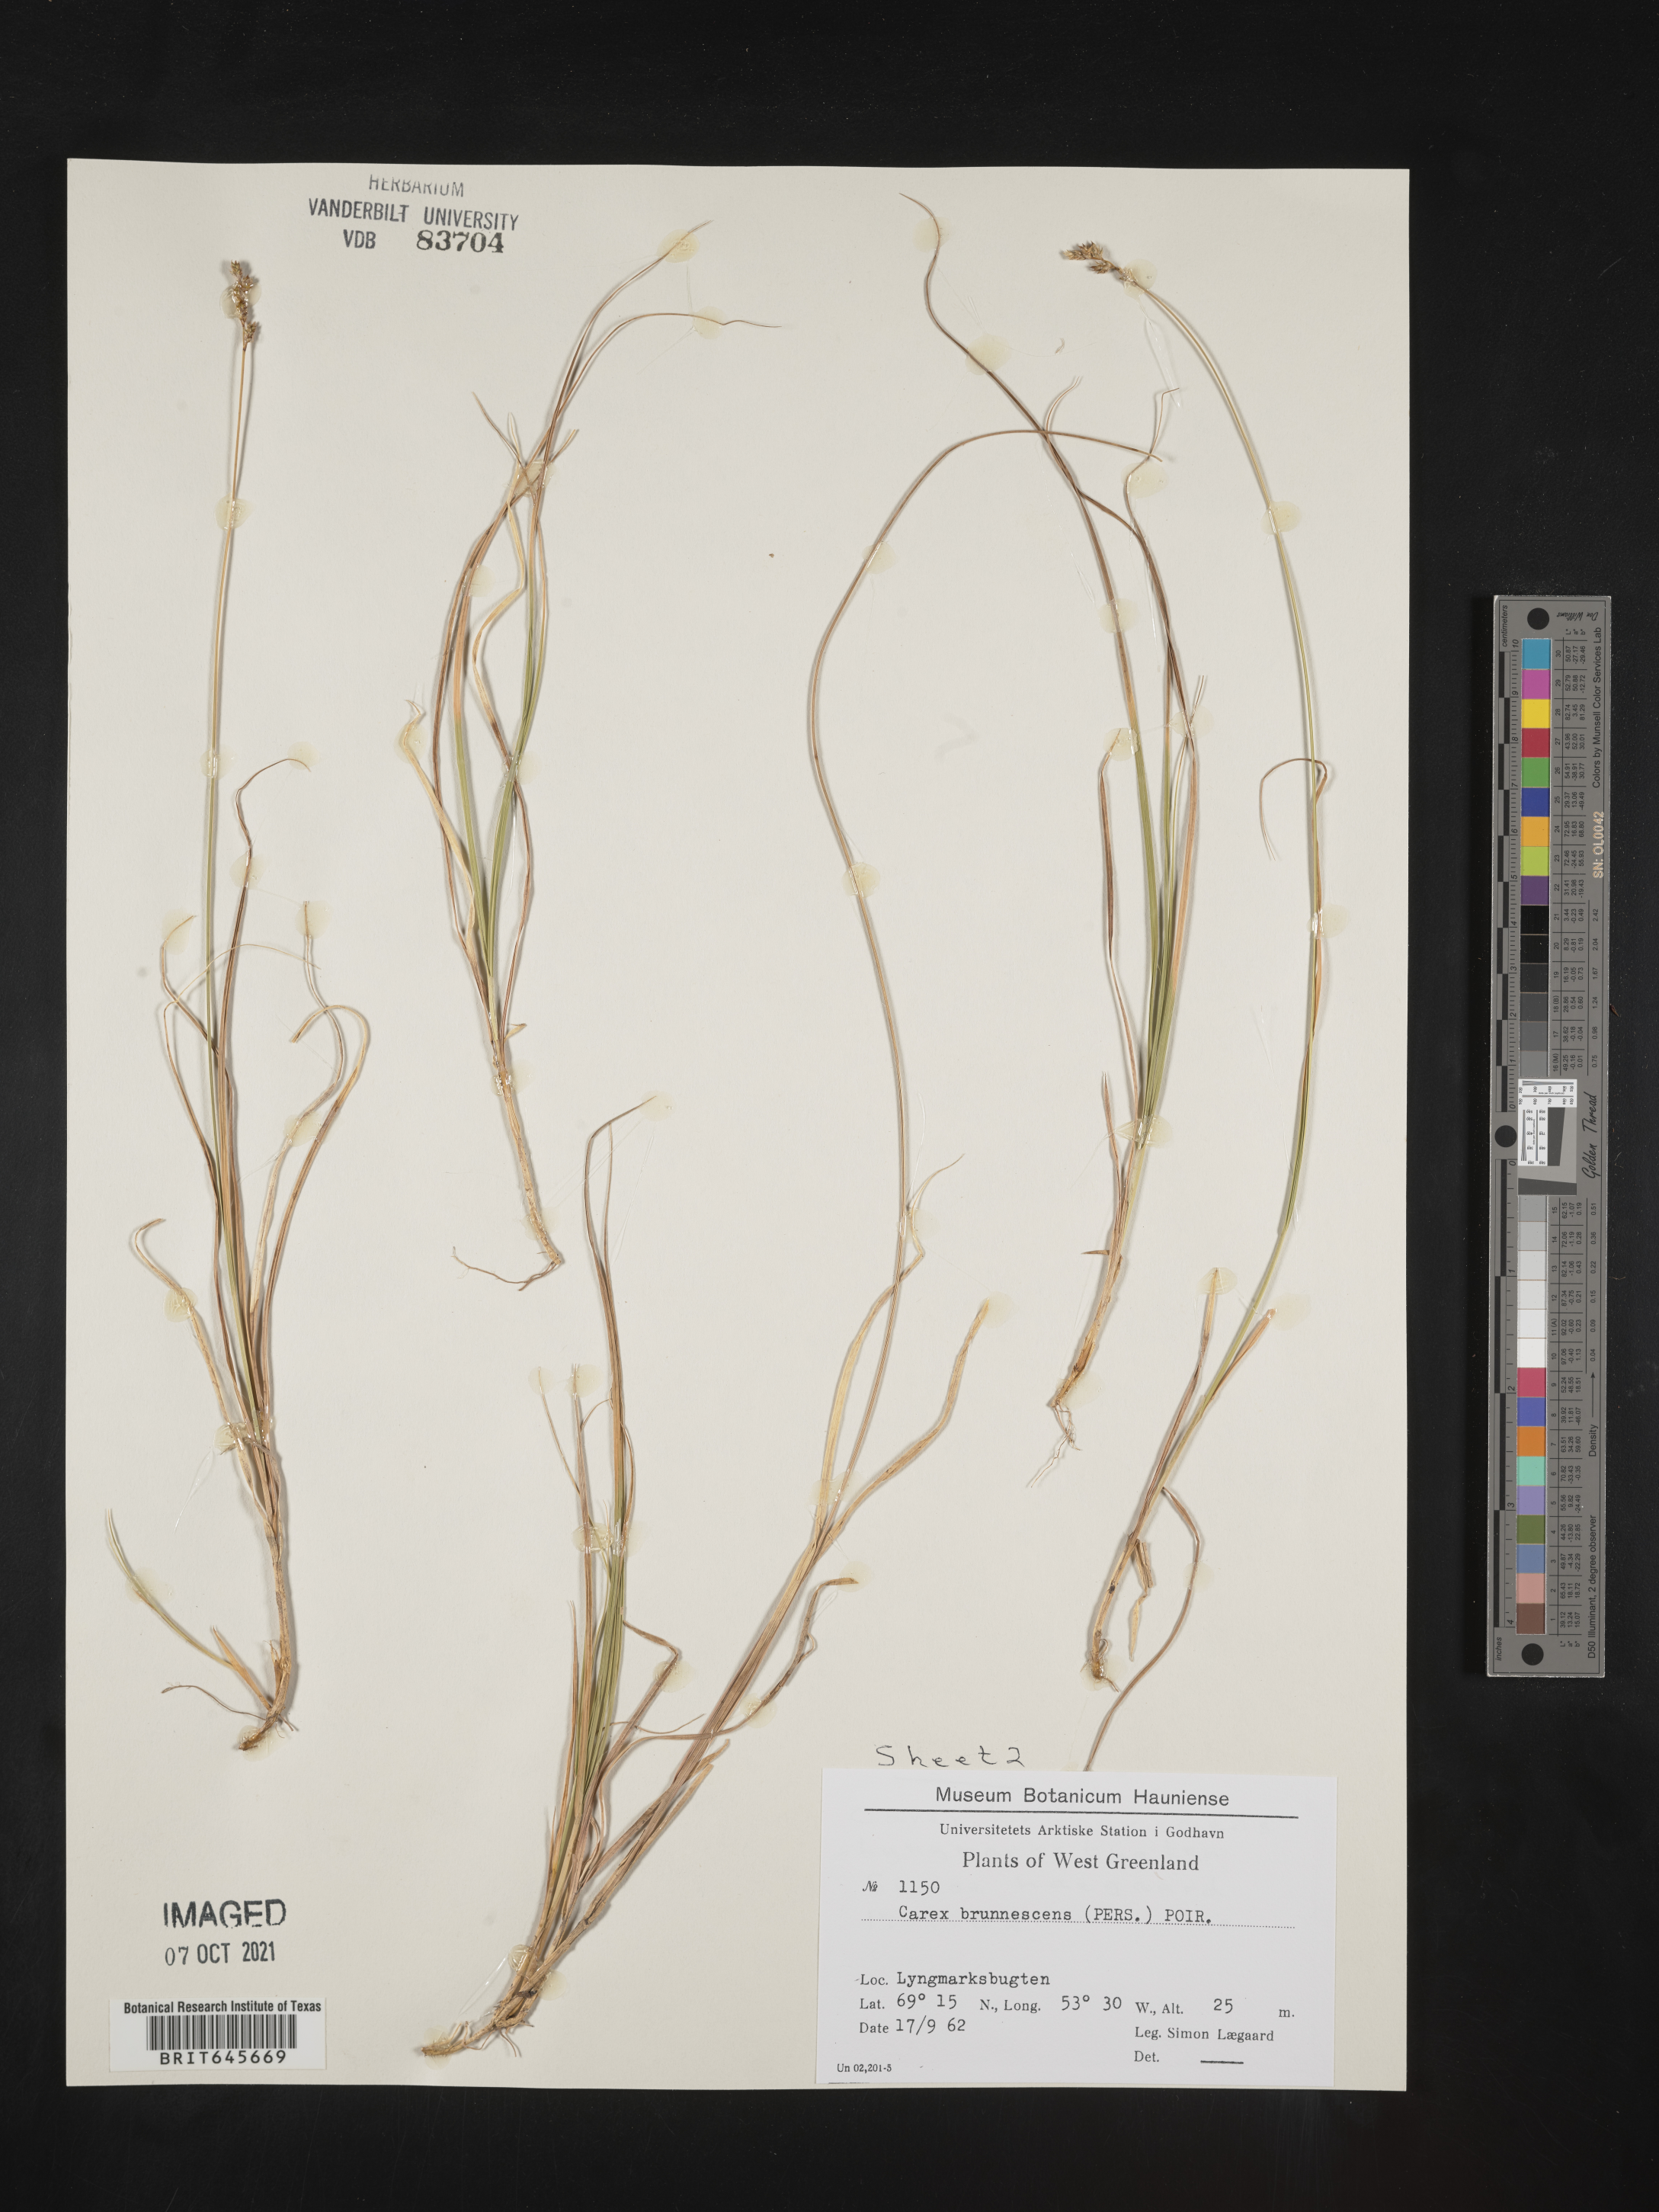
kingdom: Plantae
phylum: Tracheophyta
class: Liliopsida
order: Poales
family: Cyperaceae
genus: Carex
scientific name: Carex brunnescens
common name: Brown sedge
